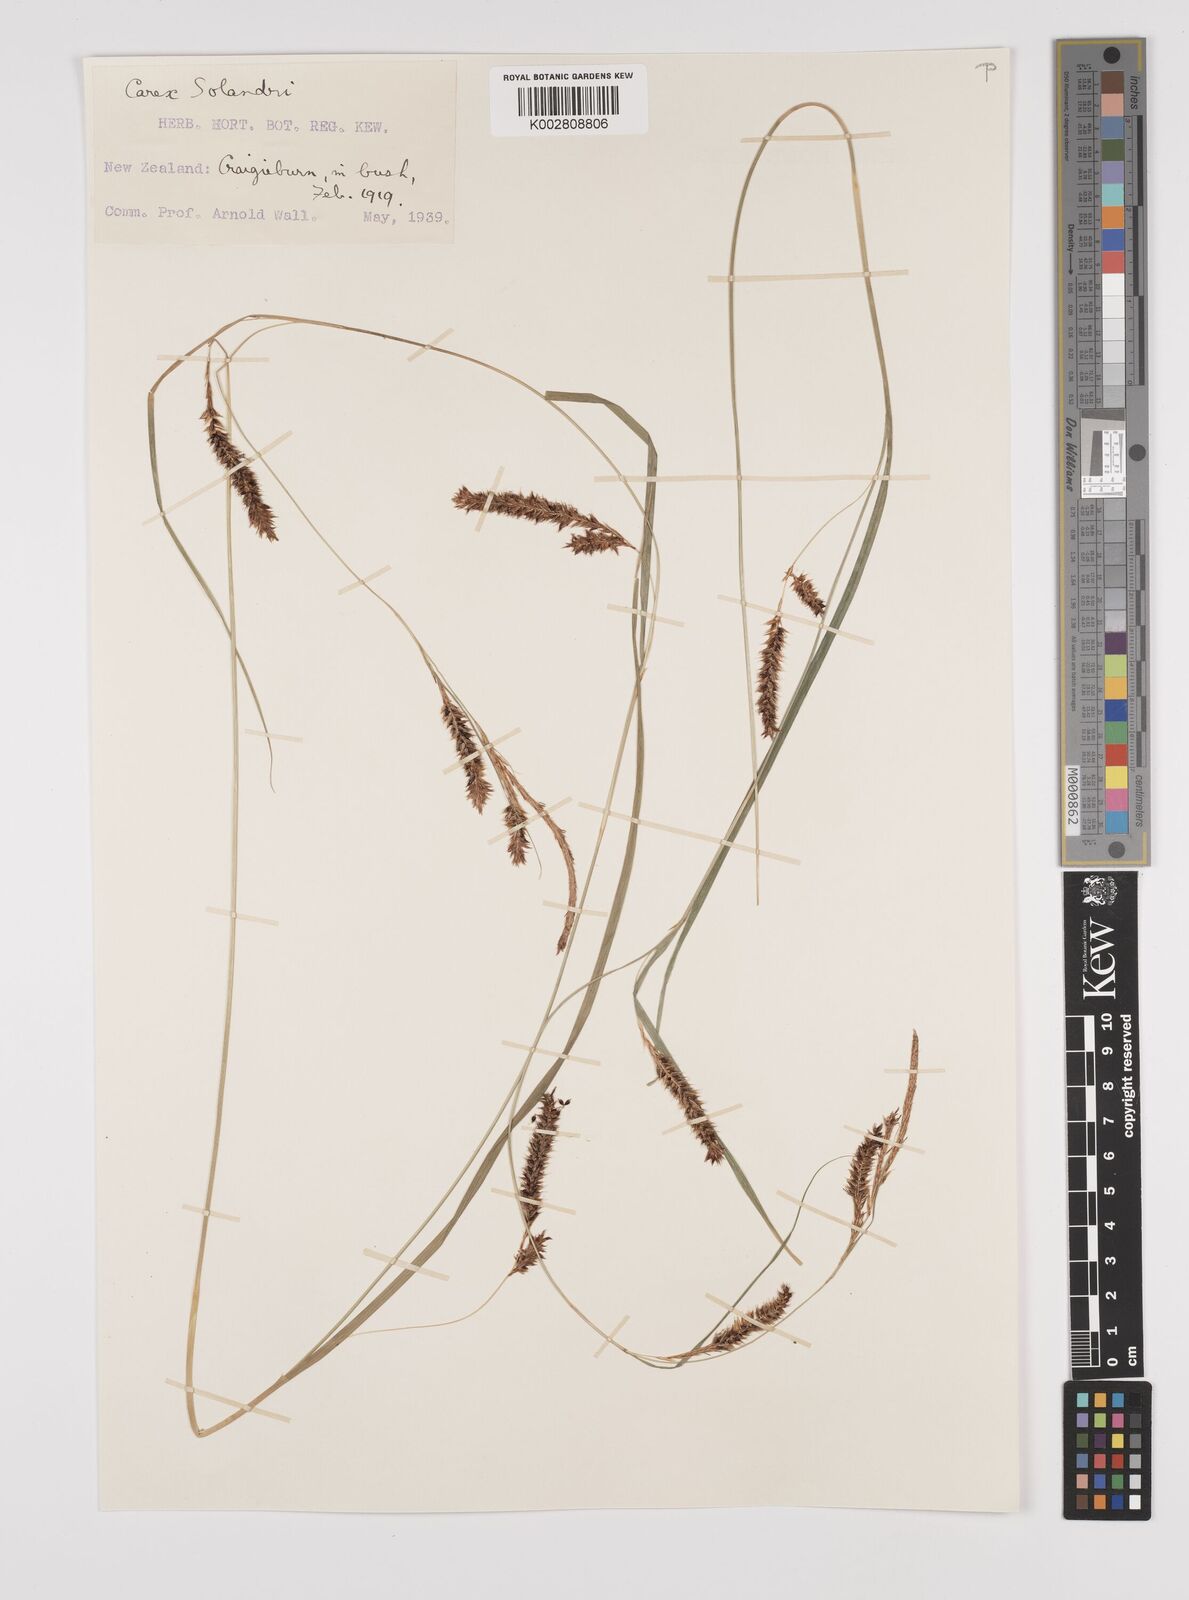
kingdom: Plantae
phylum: Tracheophyta
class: Liliopsida
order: Poales
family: Cyperaceae
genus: Carex
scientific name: Carex dissita
